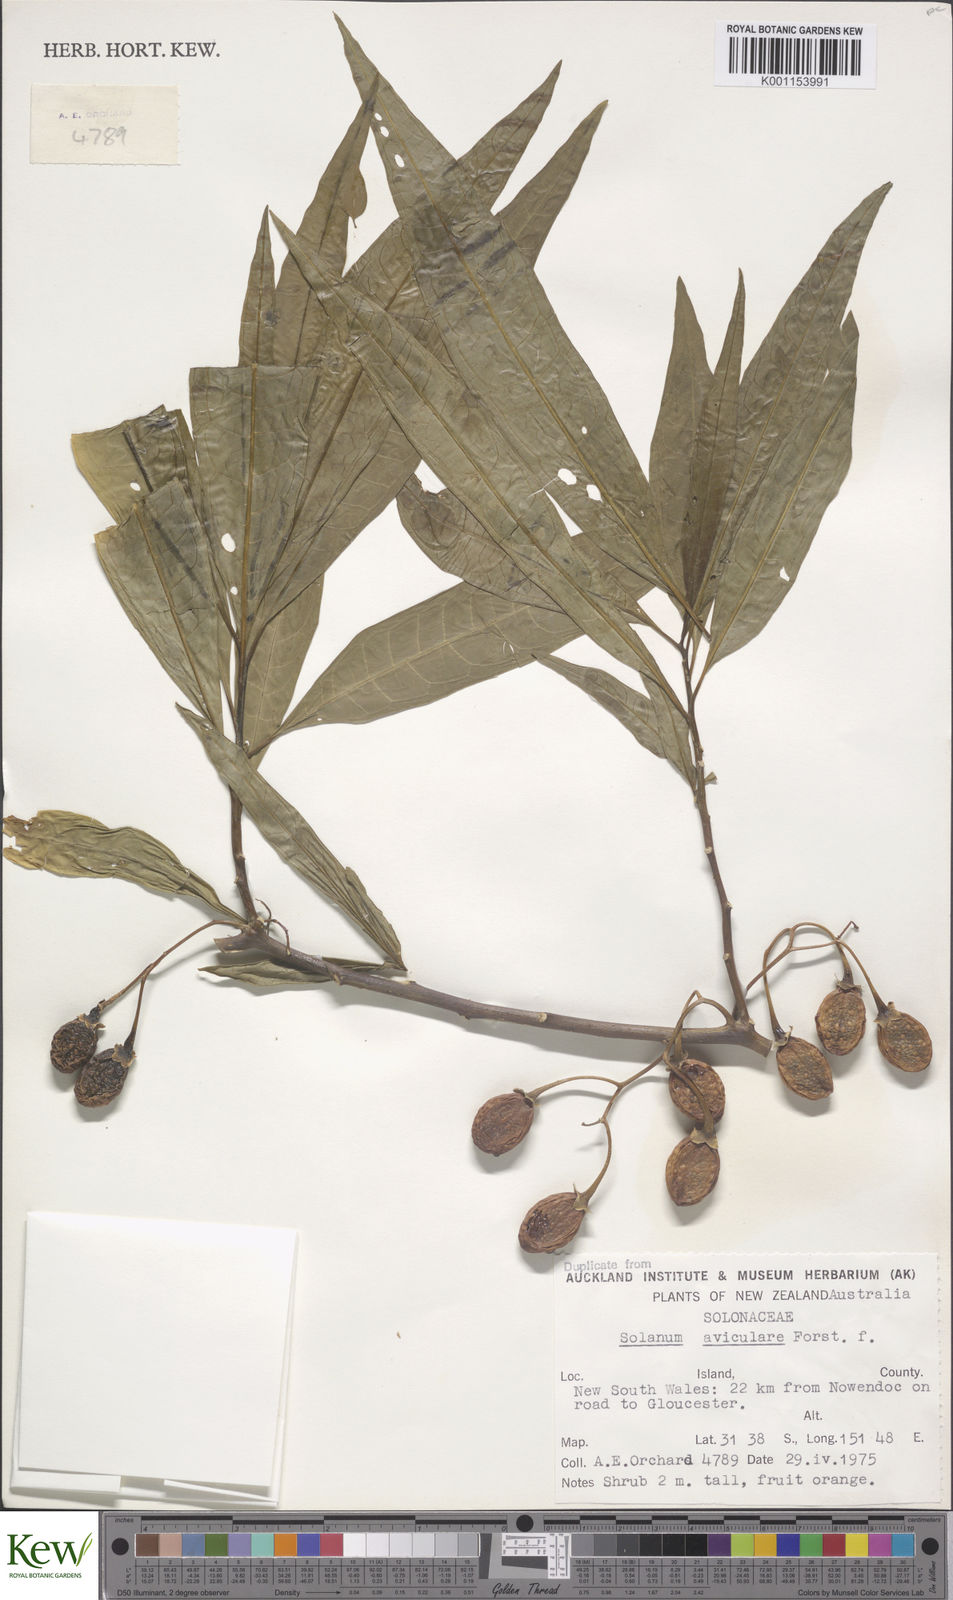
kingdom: Plantae
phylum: Tracheophyta
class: Magnoliopsida
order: Solanales
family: Solanaceae
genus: Solanum
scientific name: Solanum aviculare
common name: New zealand nightshade
